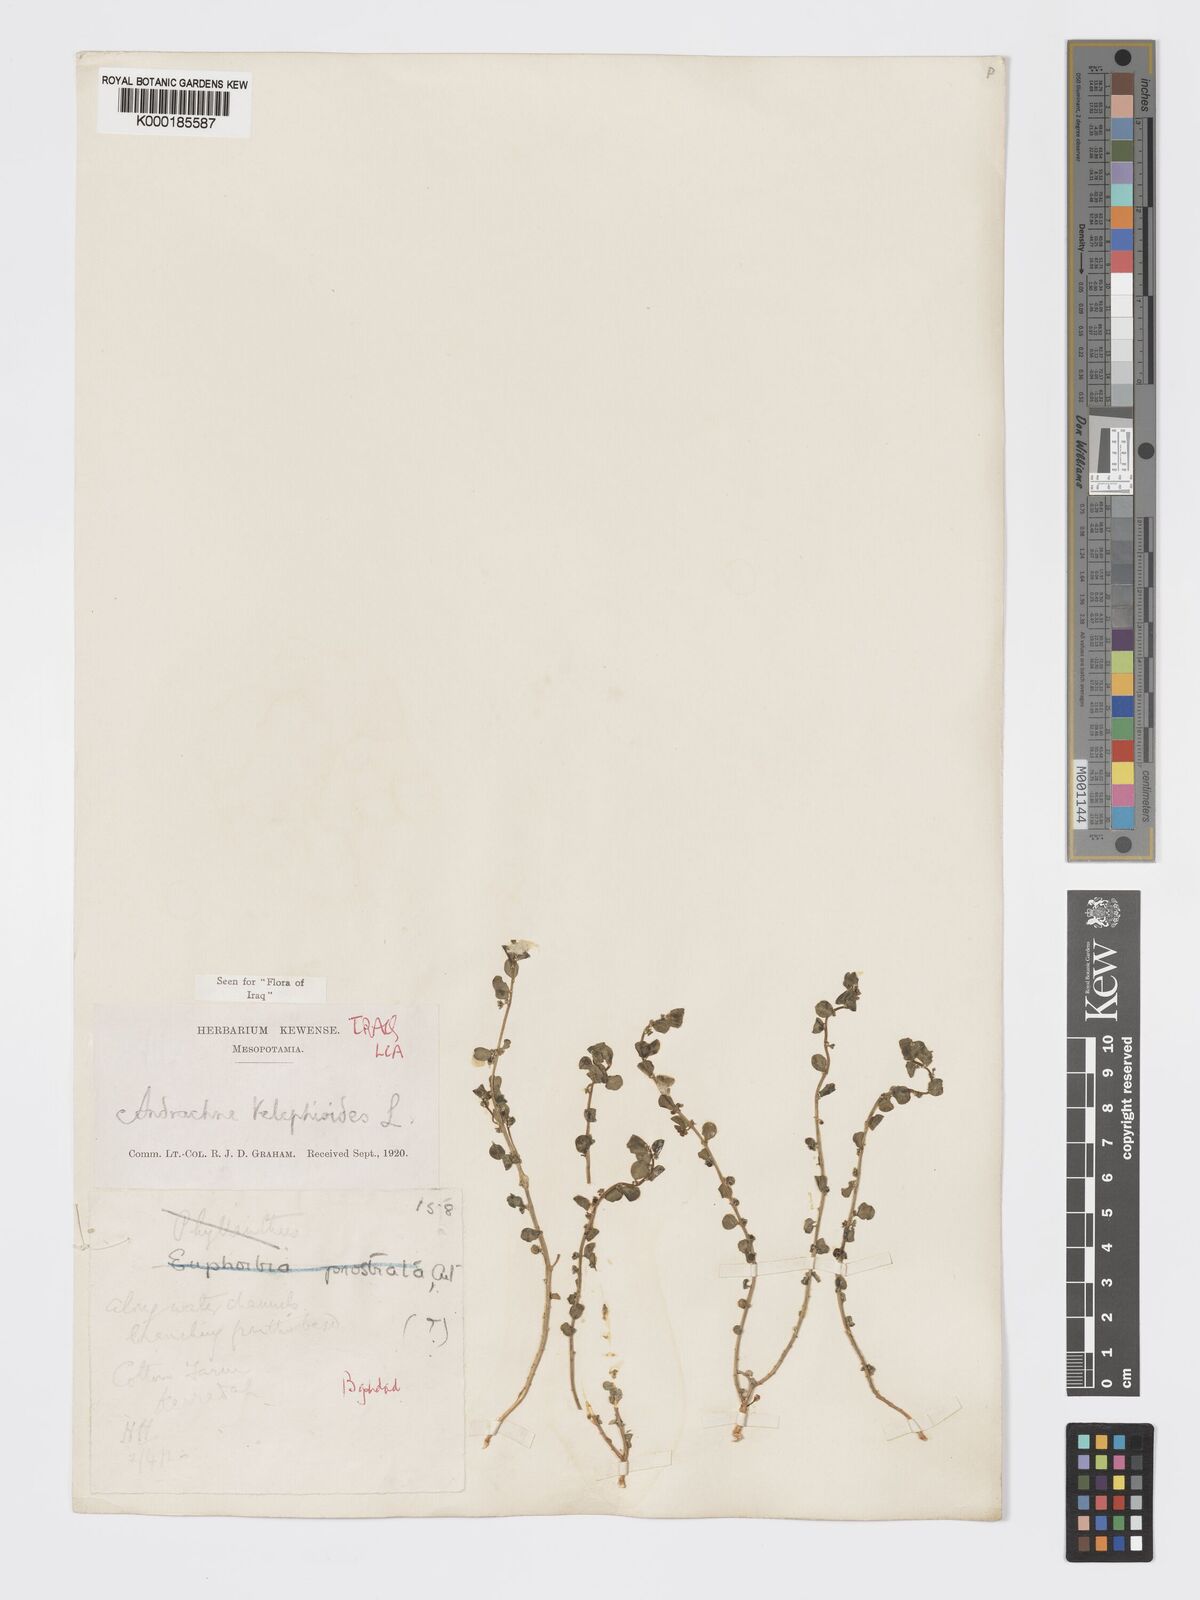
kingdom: Plantae
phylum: Tracheophyta
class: Magnoliopsida
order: Malpighiales
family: Phyllanthaceae
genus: Andrachne
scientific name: Andrachne telephioides
